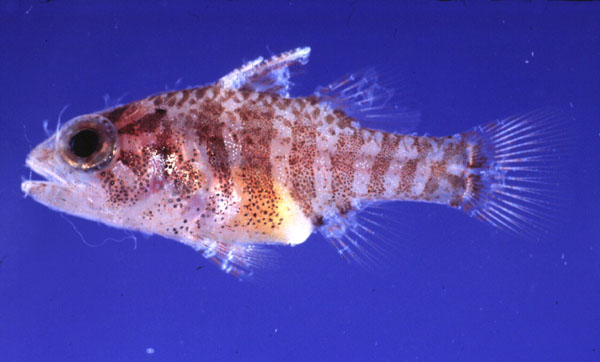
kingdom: Animalia
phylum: Chordata
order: Perciformes
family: Apogonidae
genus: Fowleria
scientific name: Fowleria variegata
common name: Variegated cardinalfish
